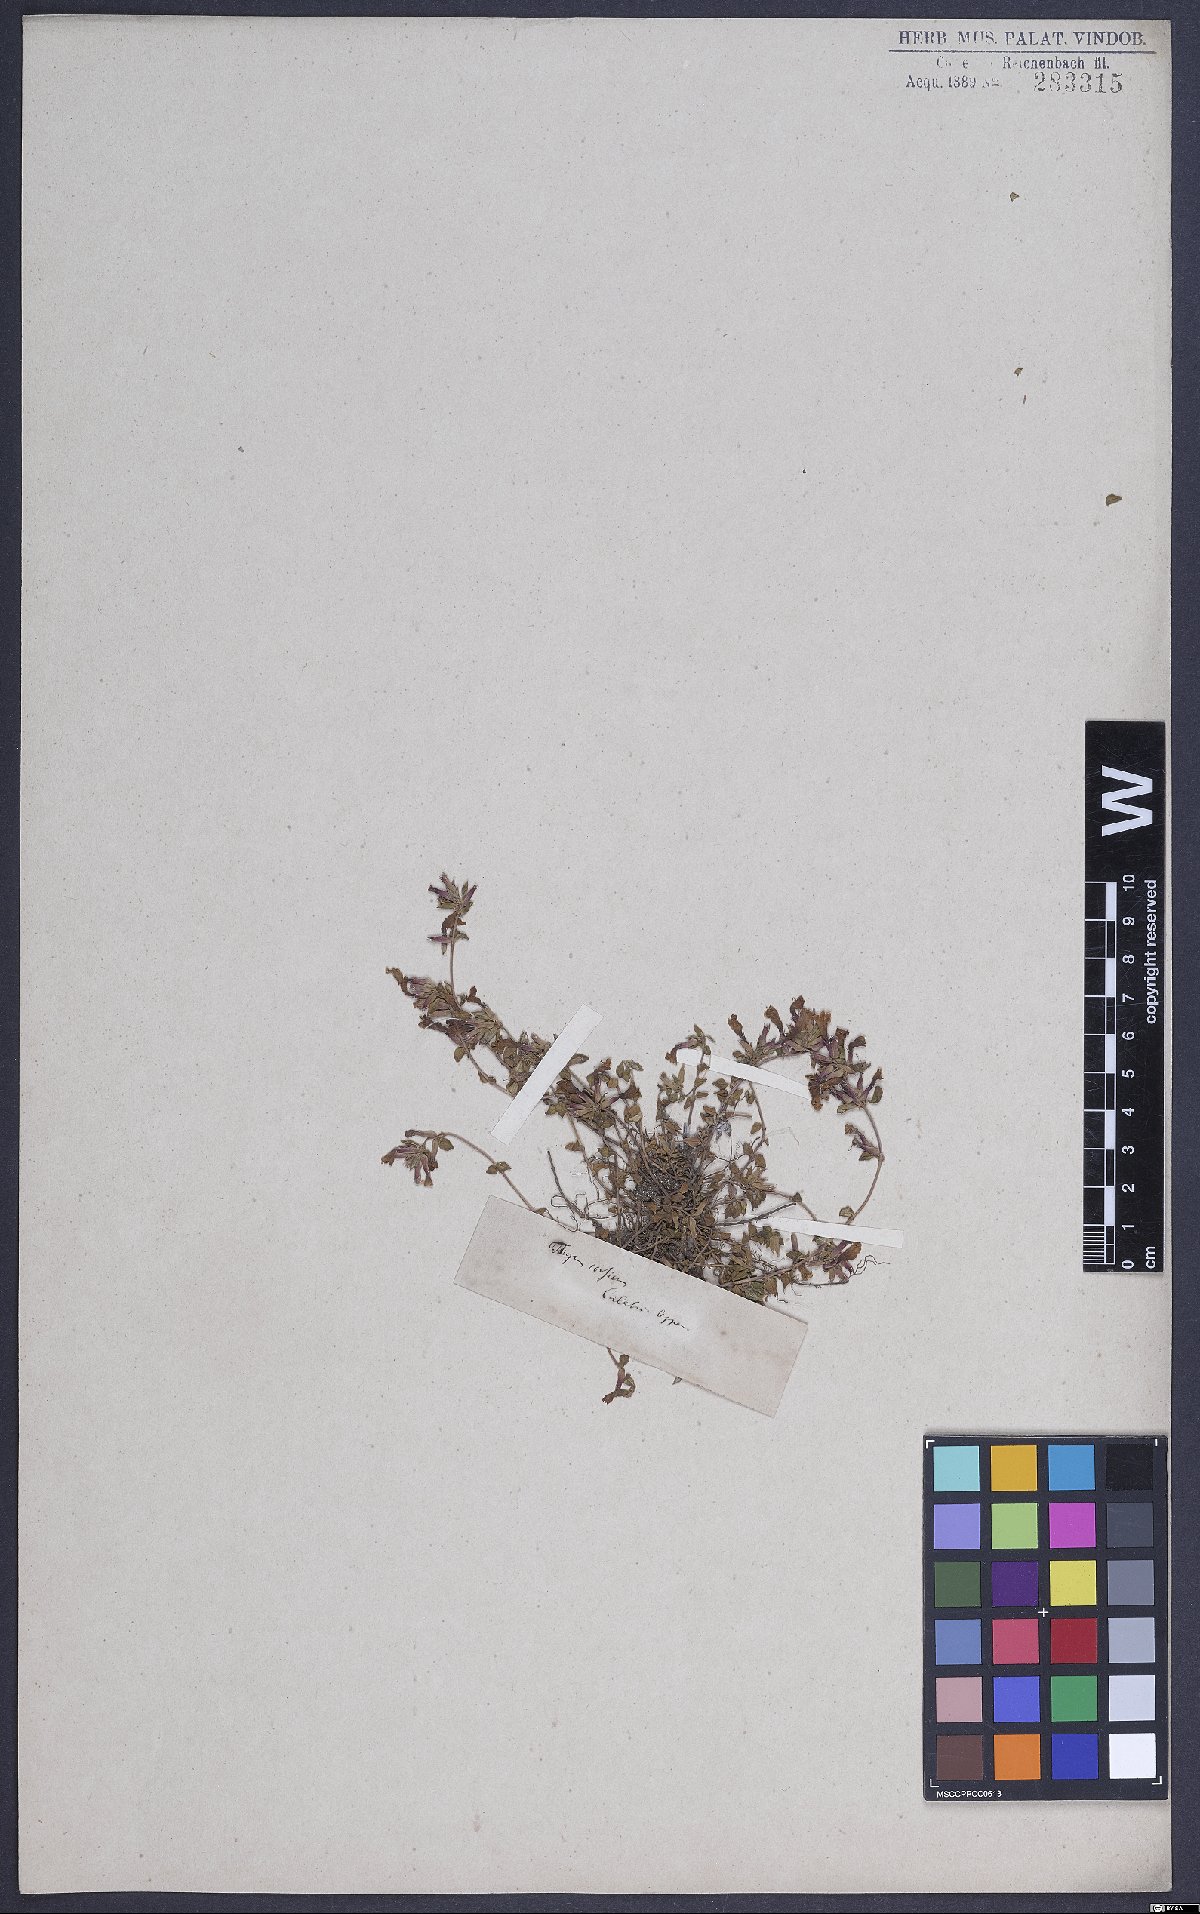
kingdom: Plantae
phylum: Tracheophyta
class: Magnoliopsida
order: Lamiales
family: Lamiaceae
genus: Calamintha
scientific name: Calamintha
